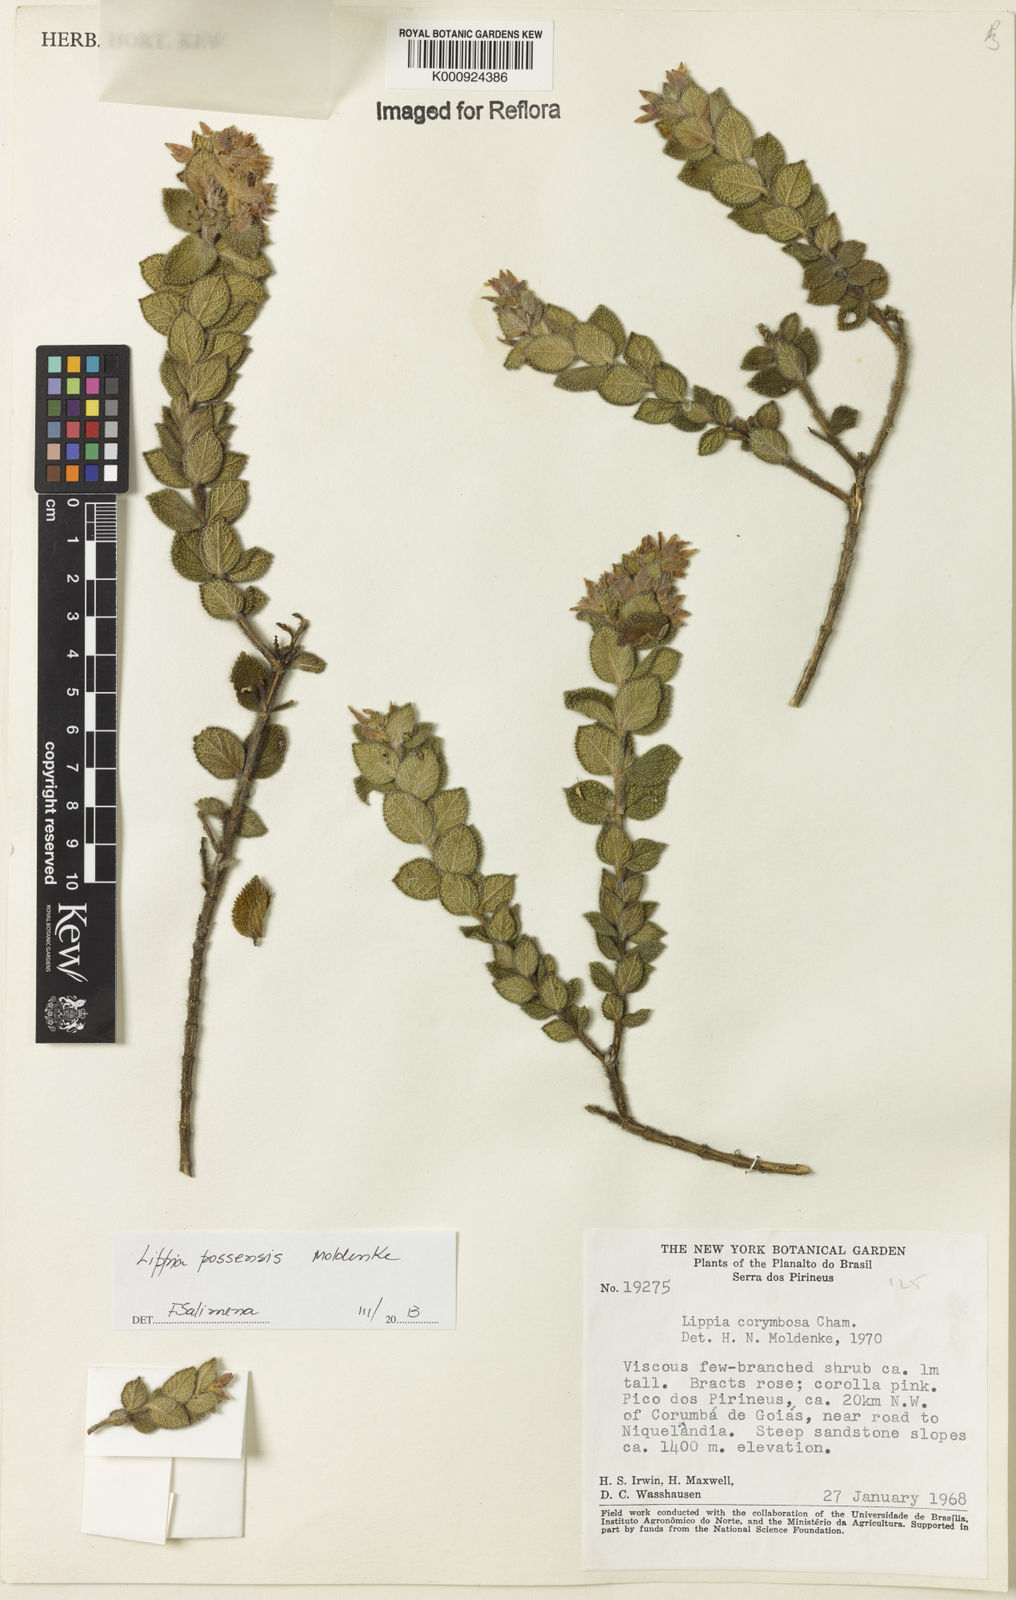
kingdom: Plantae
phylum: Tracheophyta
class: Magnoliopsida
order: Lamiales
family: Verbenaceae
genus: Lippia
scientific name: Lippia possensis
